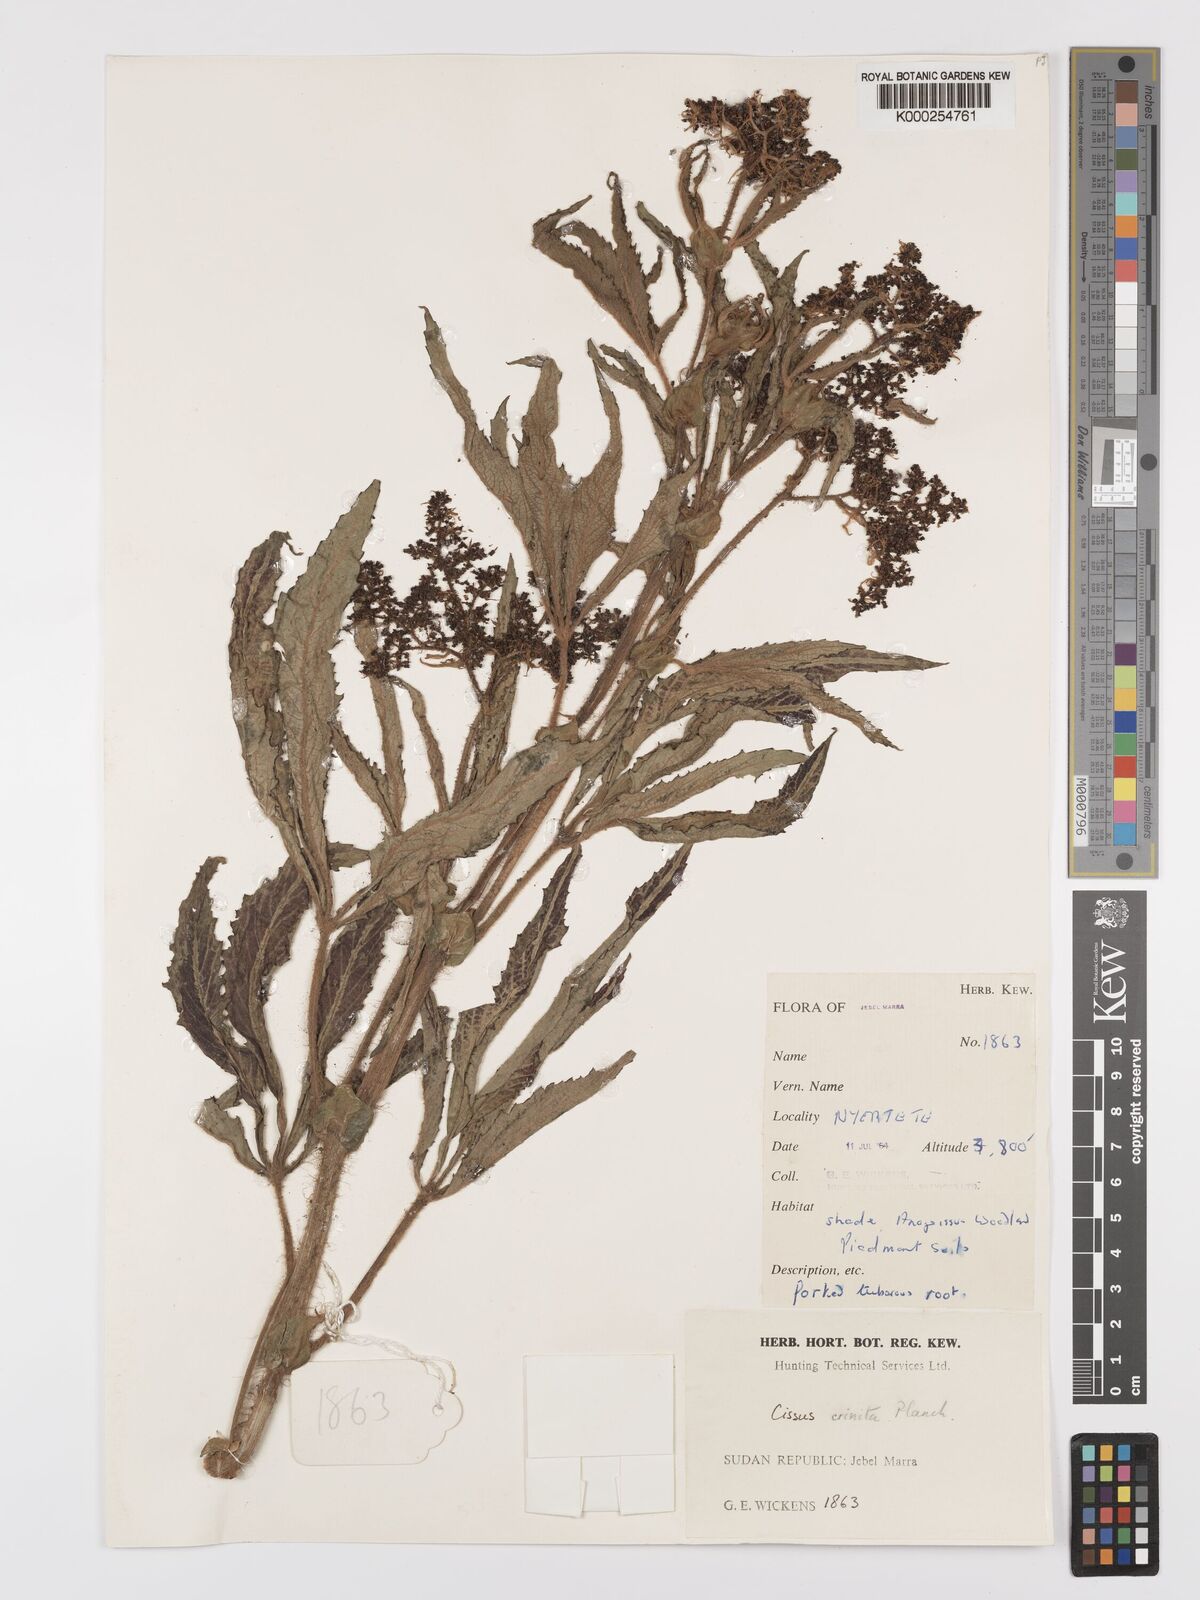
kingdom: Plantae
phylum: Tracheophyta
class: Magnoliopsida
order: Vitales
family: Vitaceae
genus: Cyphostemma
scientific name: Cyphostemma crinitum
